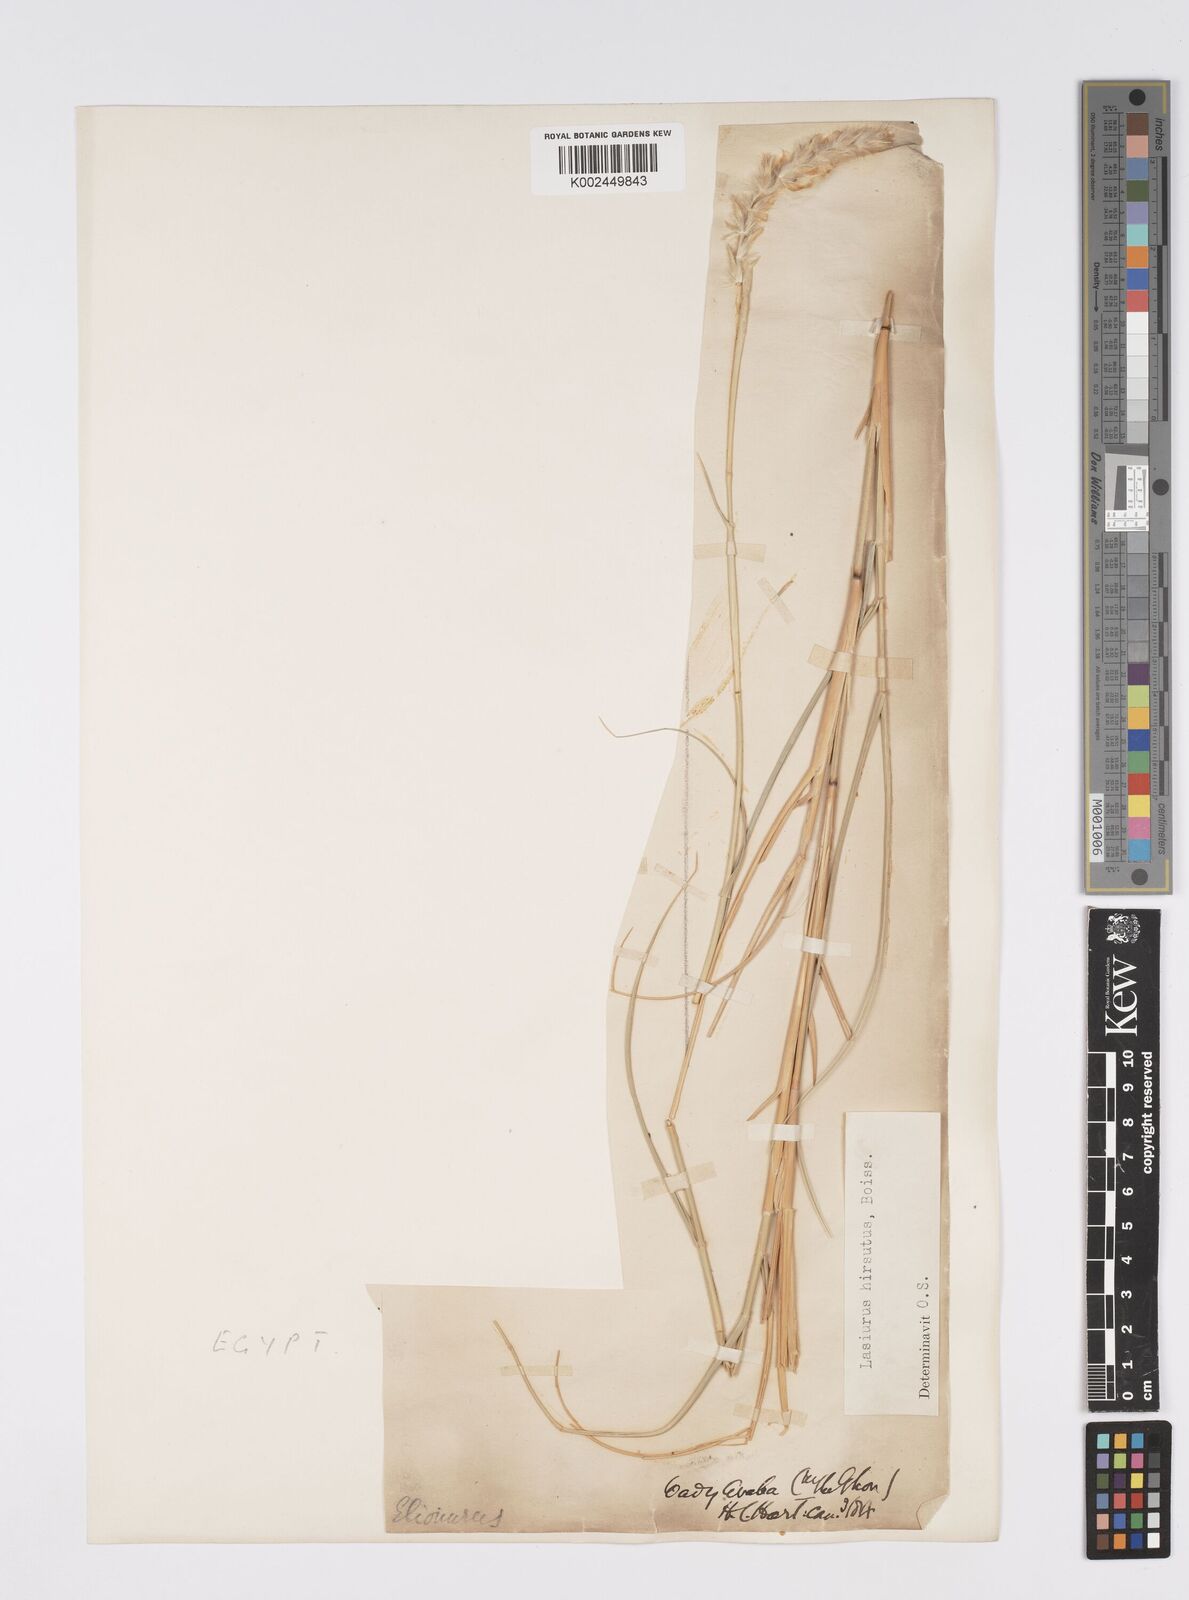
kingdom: Plantae
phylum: Tracheophyta
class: Liliopsida
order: Poales
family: Poaceae
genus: Lasiurus
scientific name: Lasiurus scindicus
